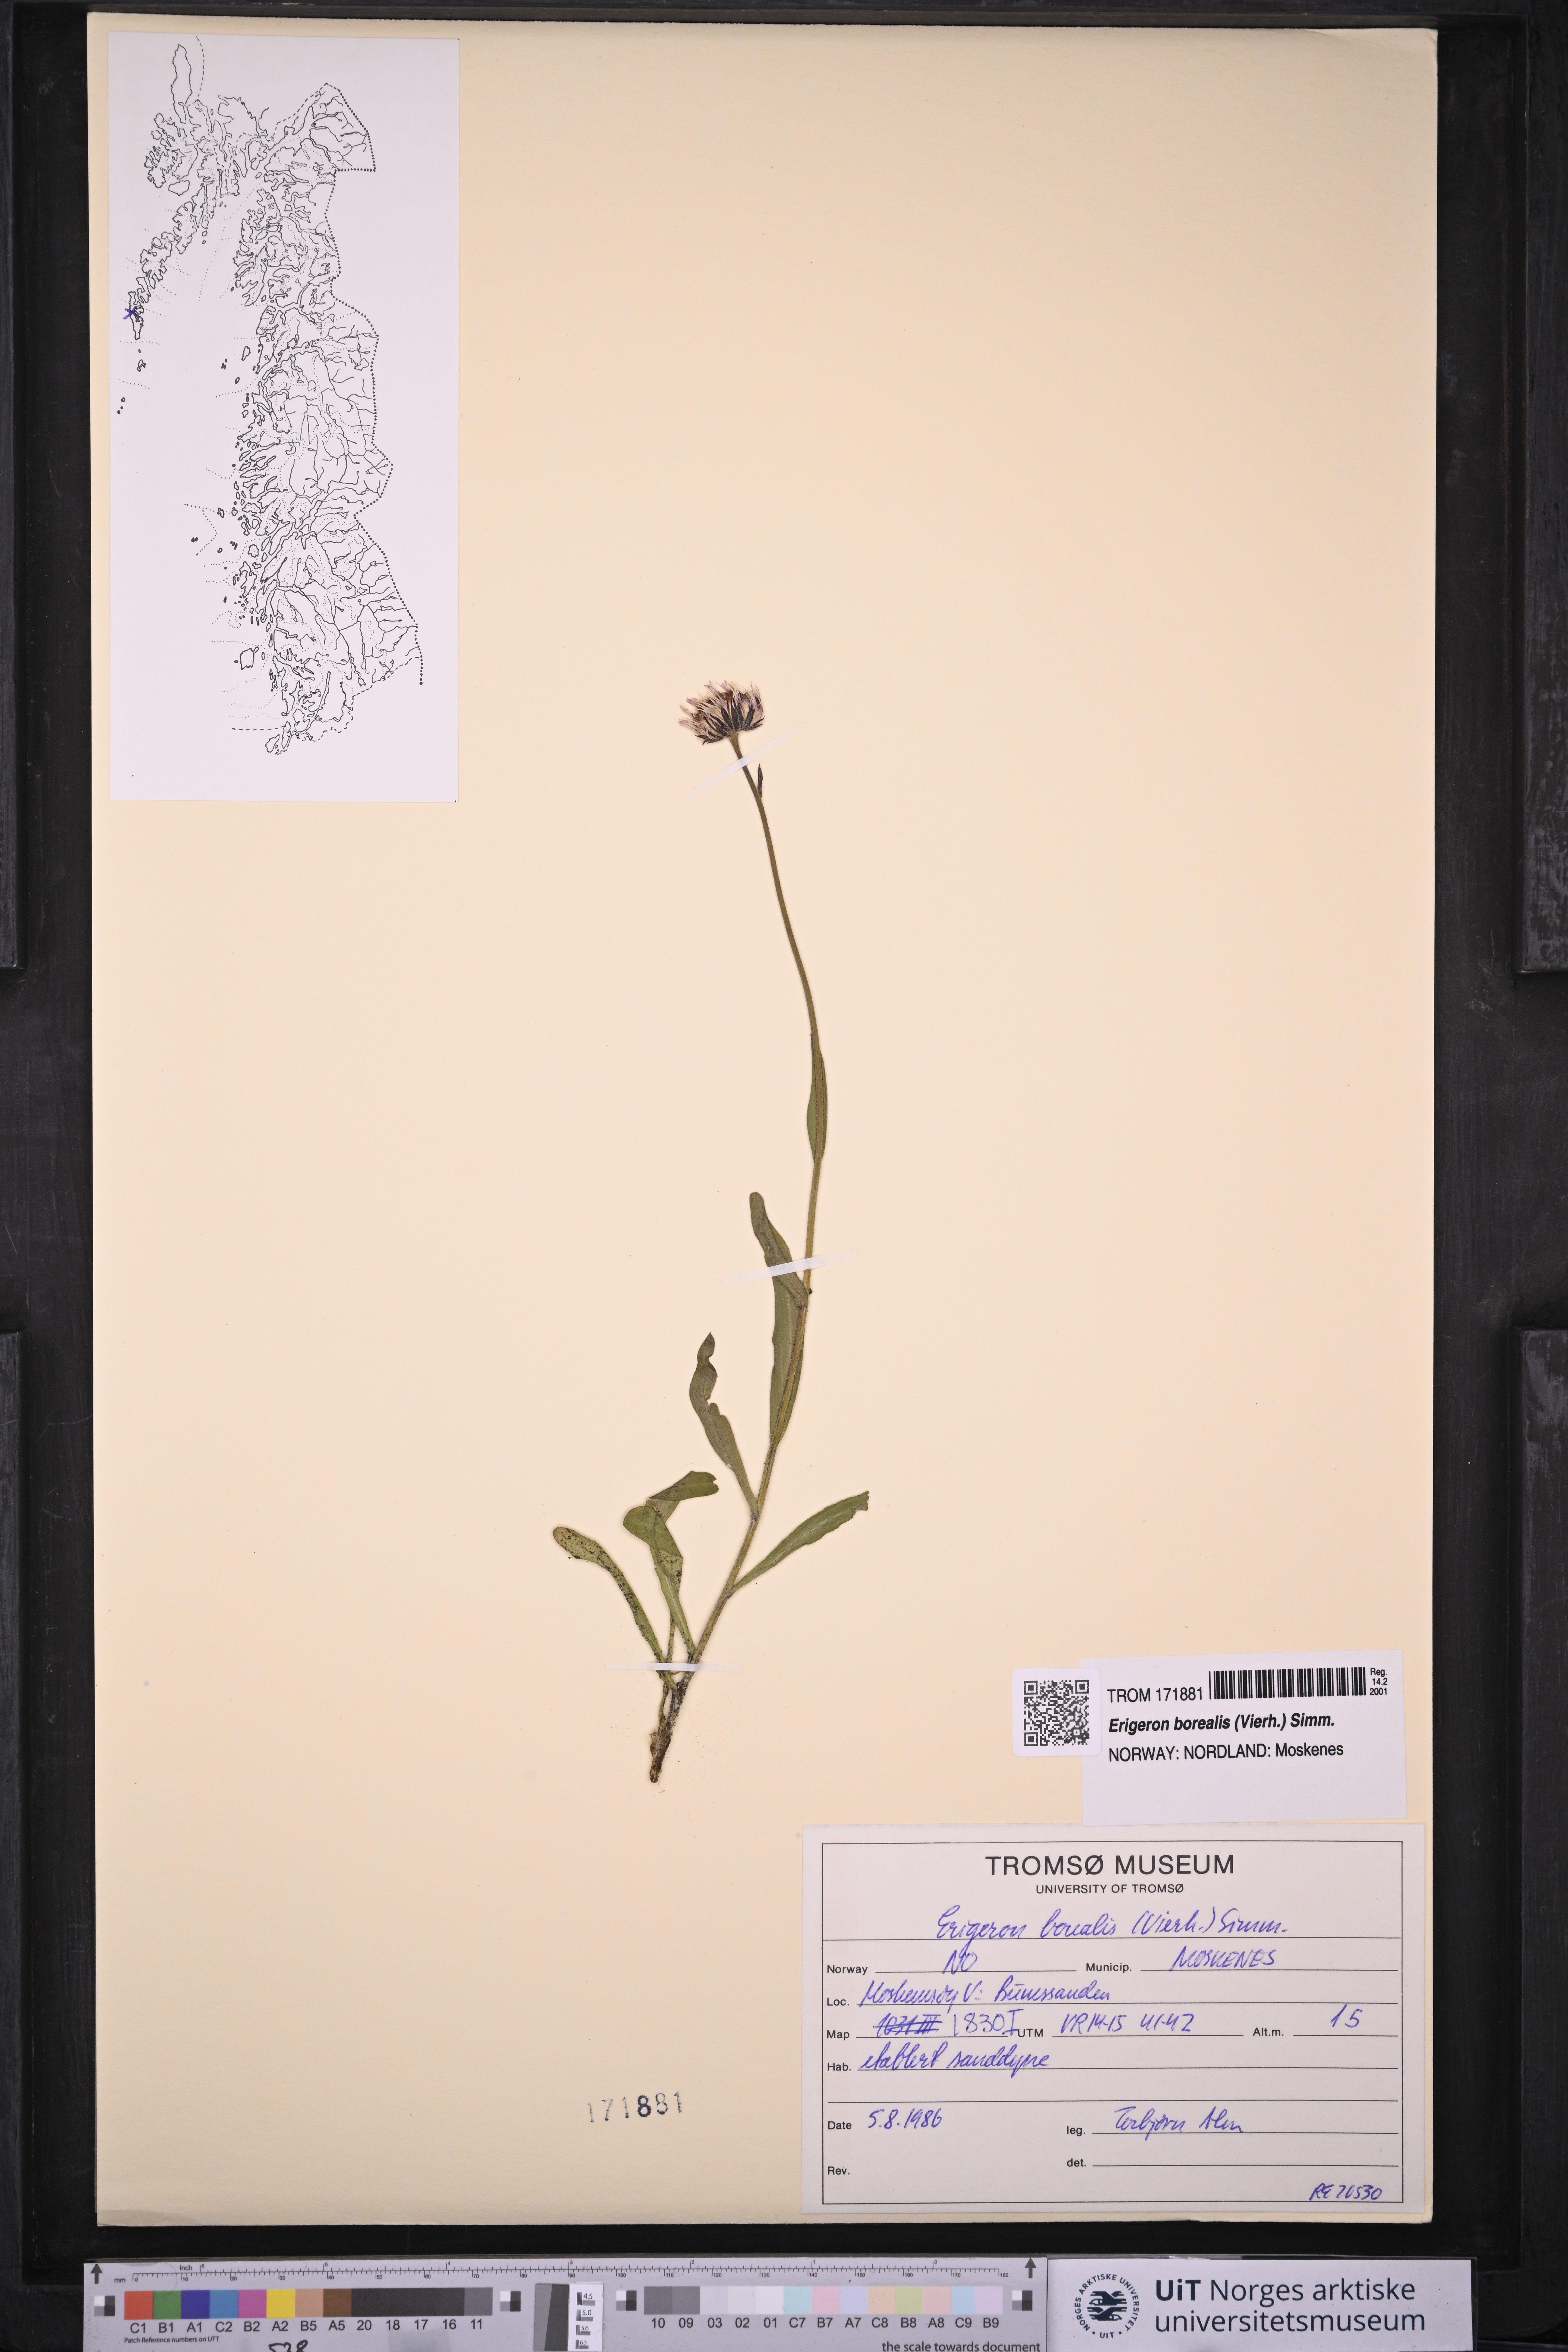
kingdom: Plantae
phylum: Tracheophyta
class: Magnoliopsida
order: Asterales
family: Asteraceae
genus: Erigeron
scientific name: Erigeron borealis
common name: Alpine fleabane
